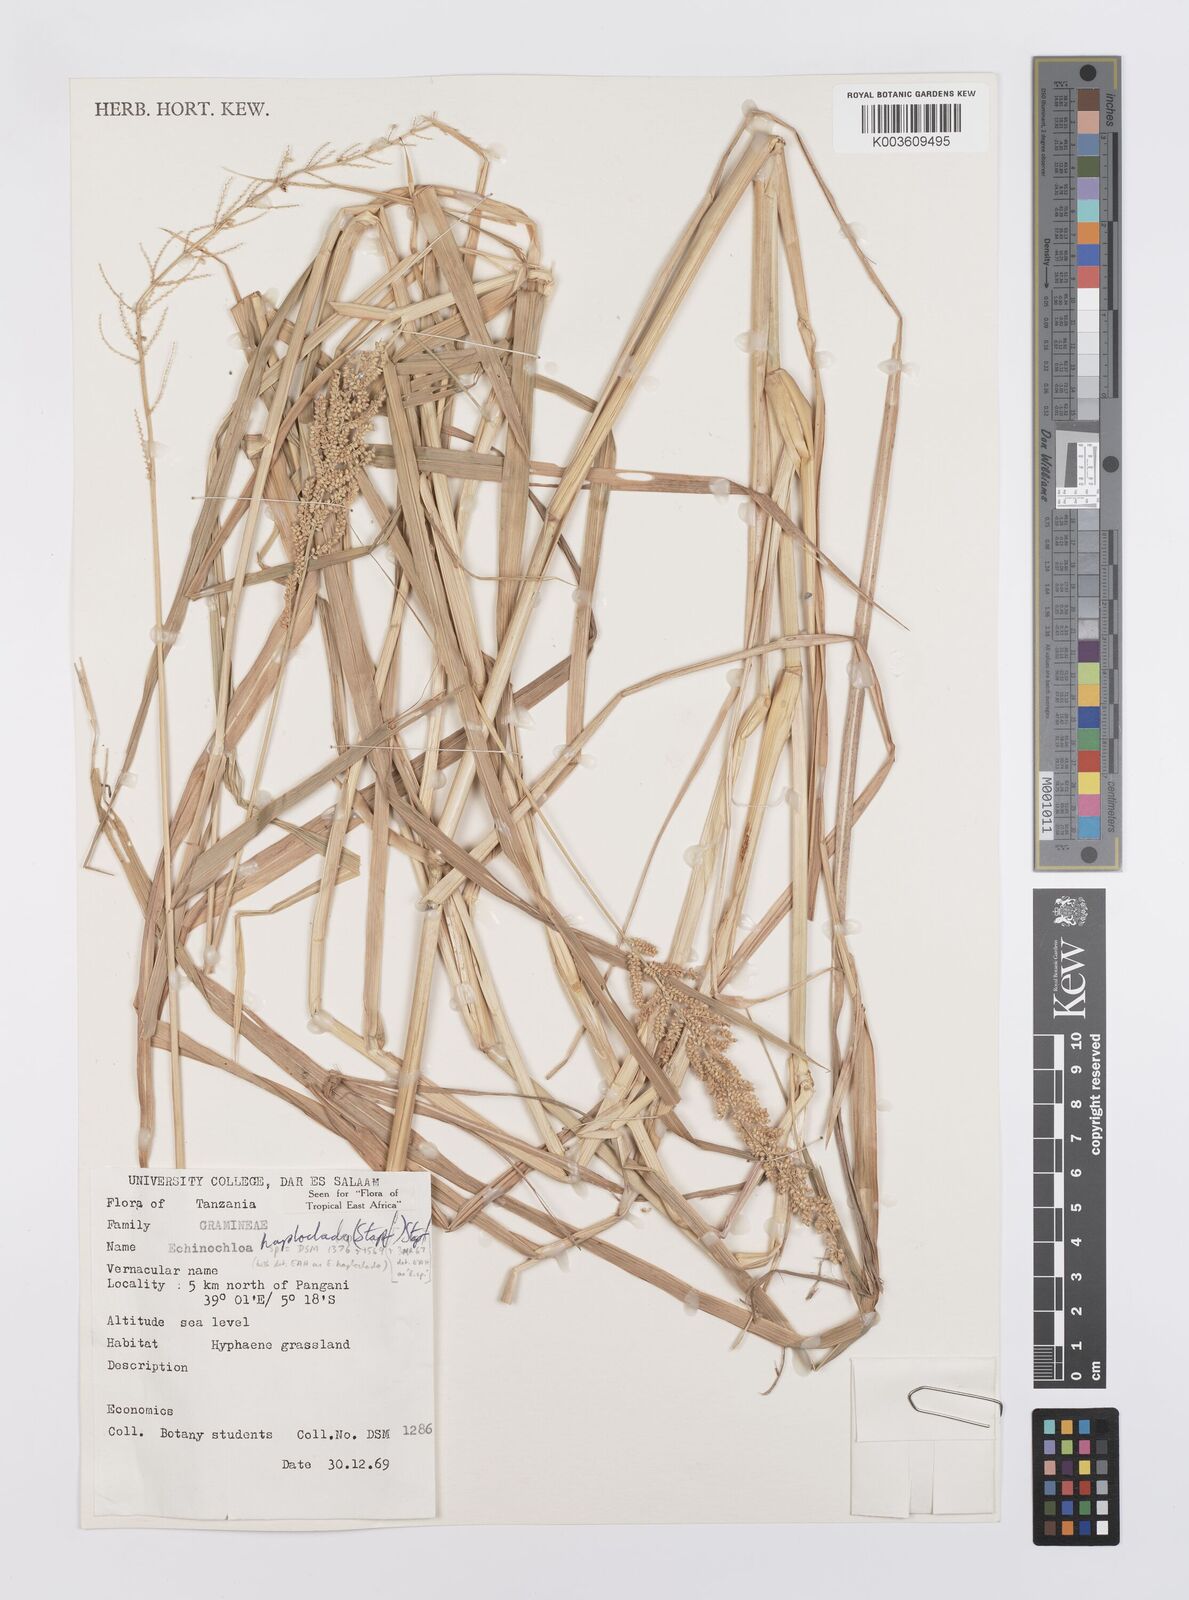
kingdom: Plantae
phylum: Tracheophyta
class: Liliopsida
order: Poales
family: Poaceae
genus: Echinochloa
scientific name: Echinochloa haploclada
